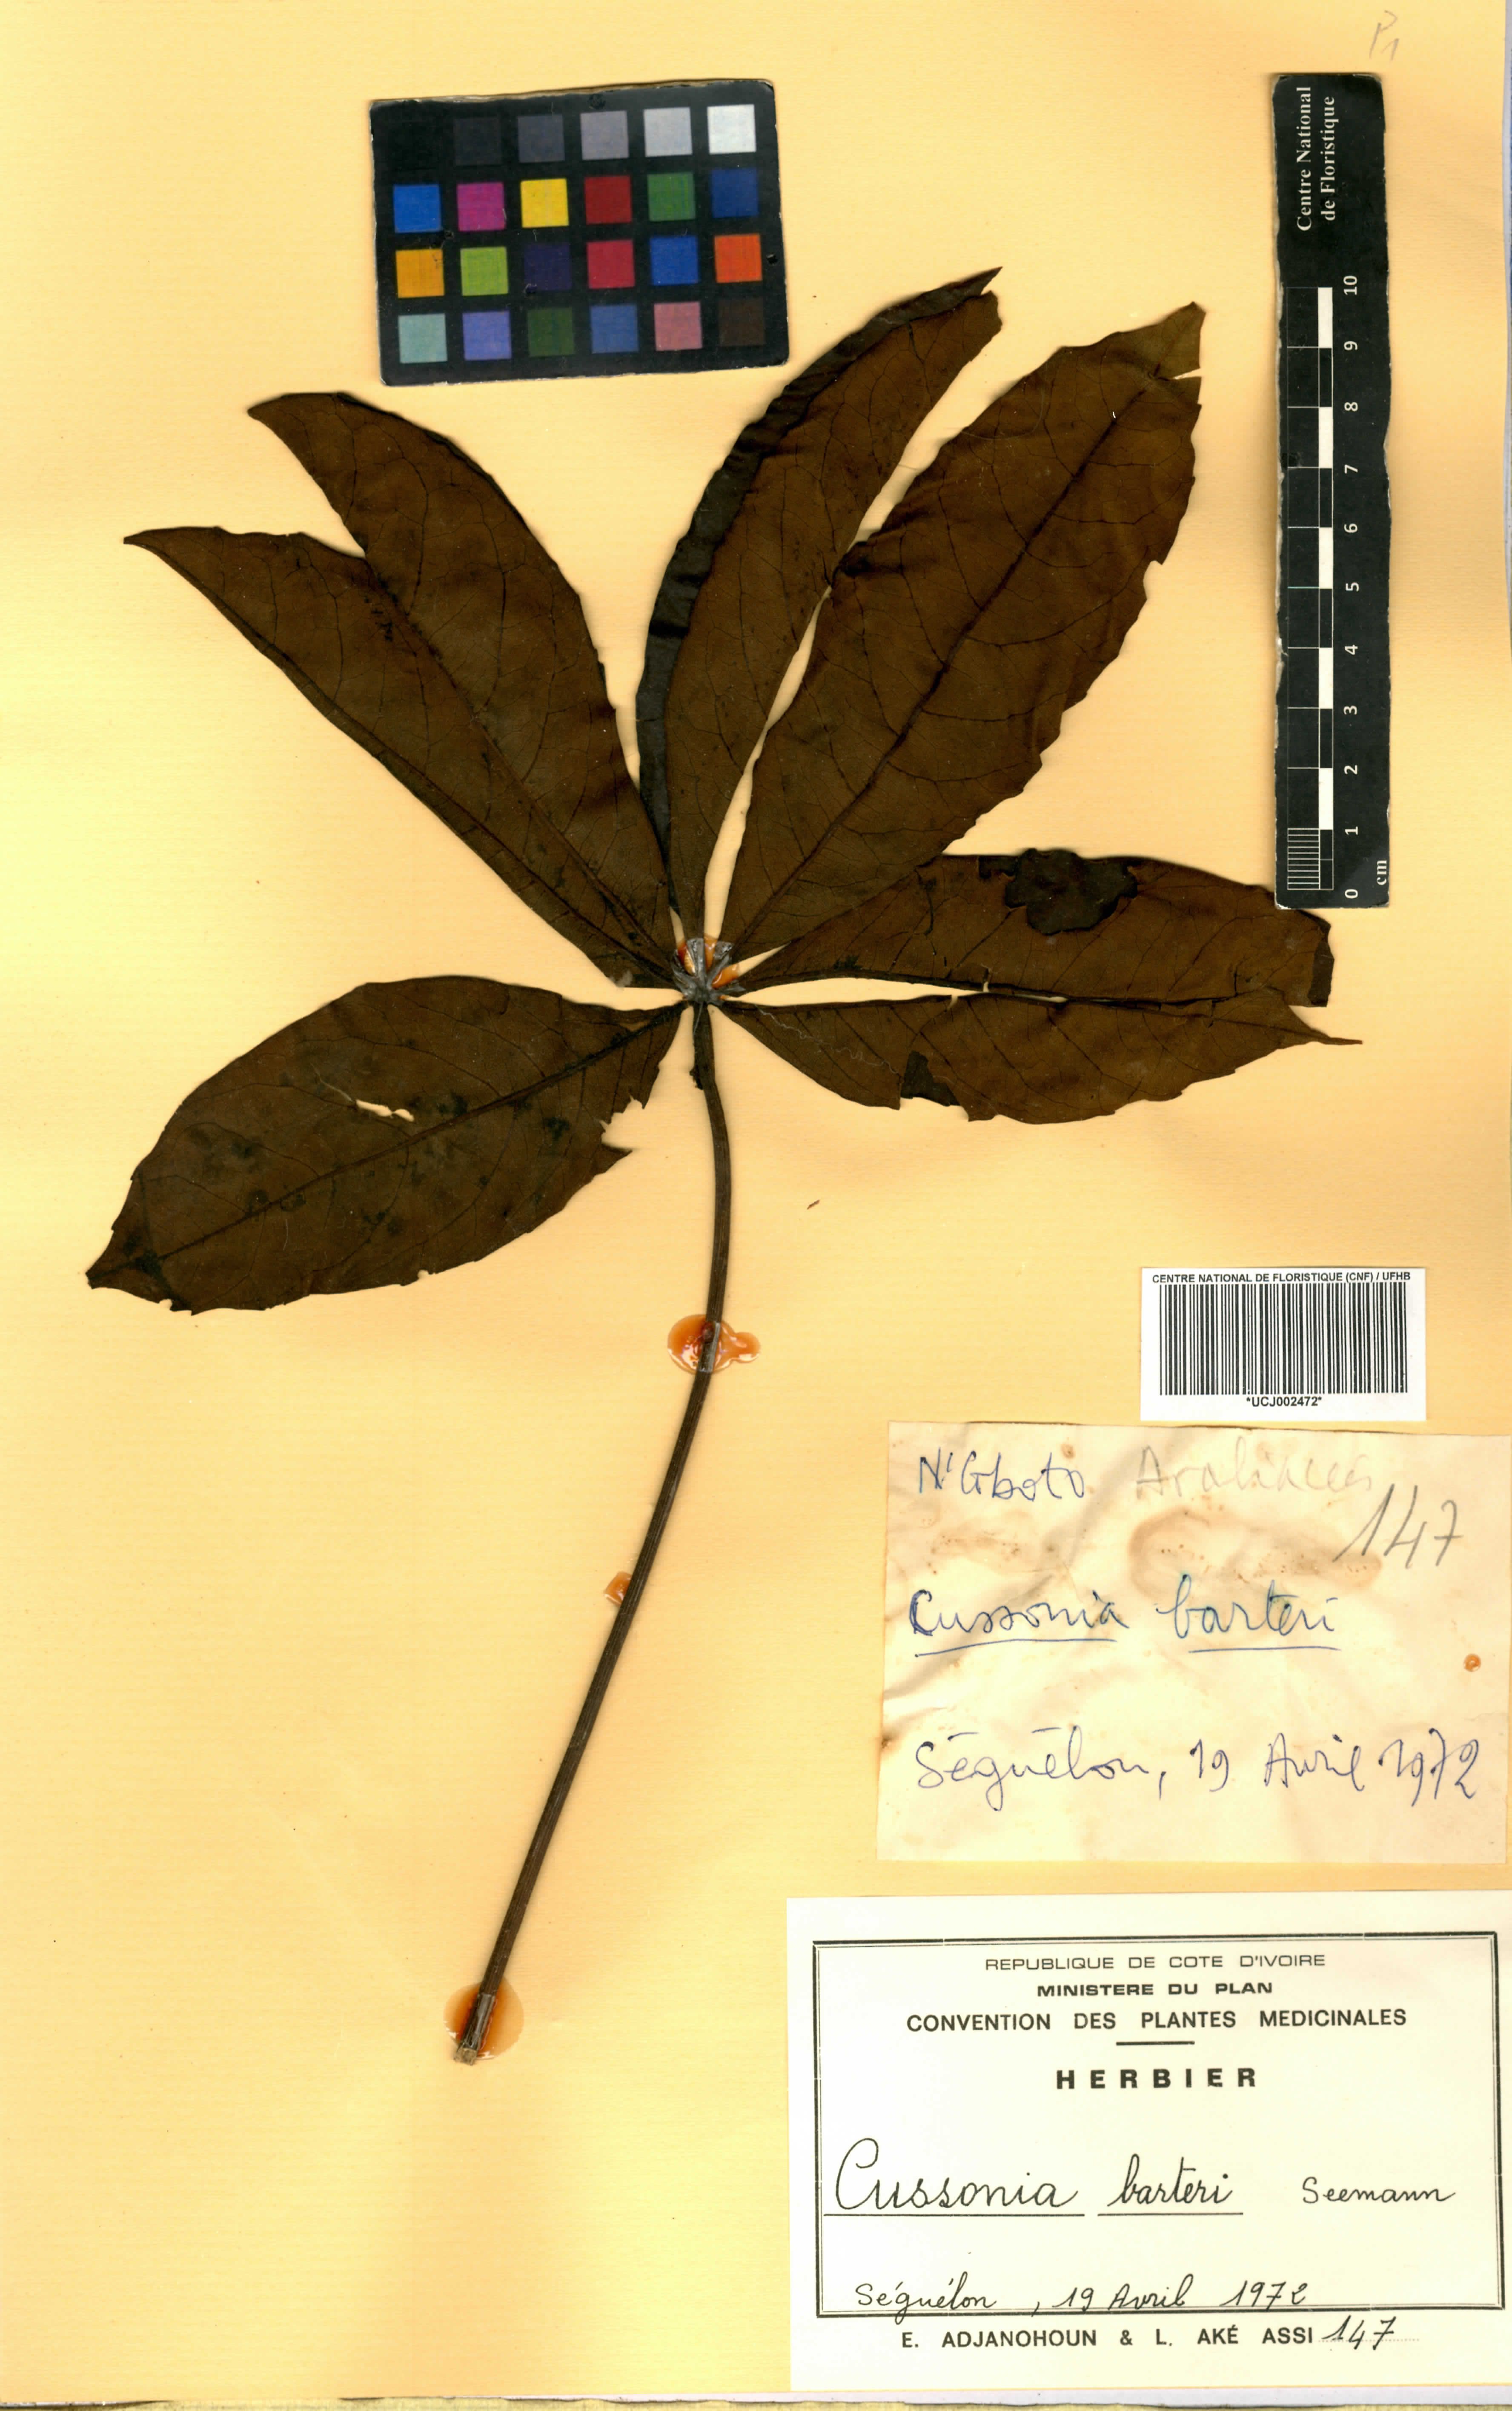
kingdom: Plantae
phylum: Tracheophyta
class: Magnoliopsida
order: Apiales
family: Araliaceae
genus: Cussonia
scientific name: Cussonia arborea
